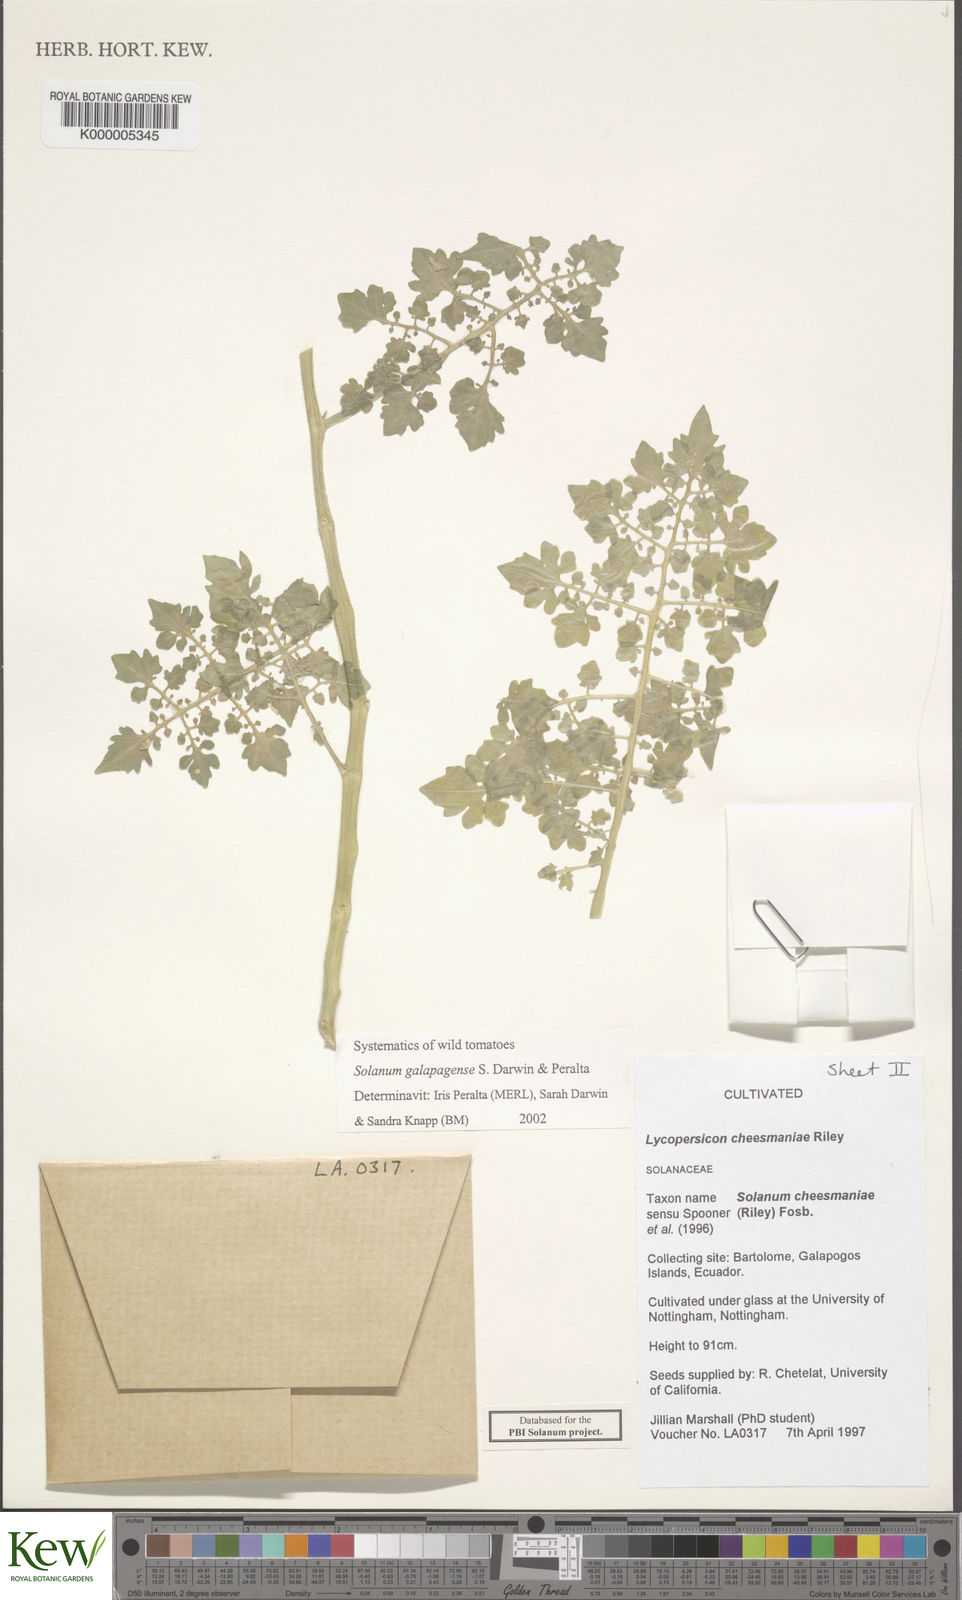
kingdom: Plantae
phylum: Tracheophyta
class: Magnoliopsida
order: Solanales
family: Solanaceae
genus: Solanum
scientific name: Solanum galapagense
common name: Galápagos tomato
